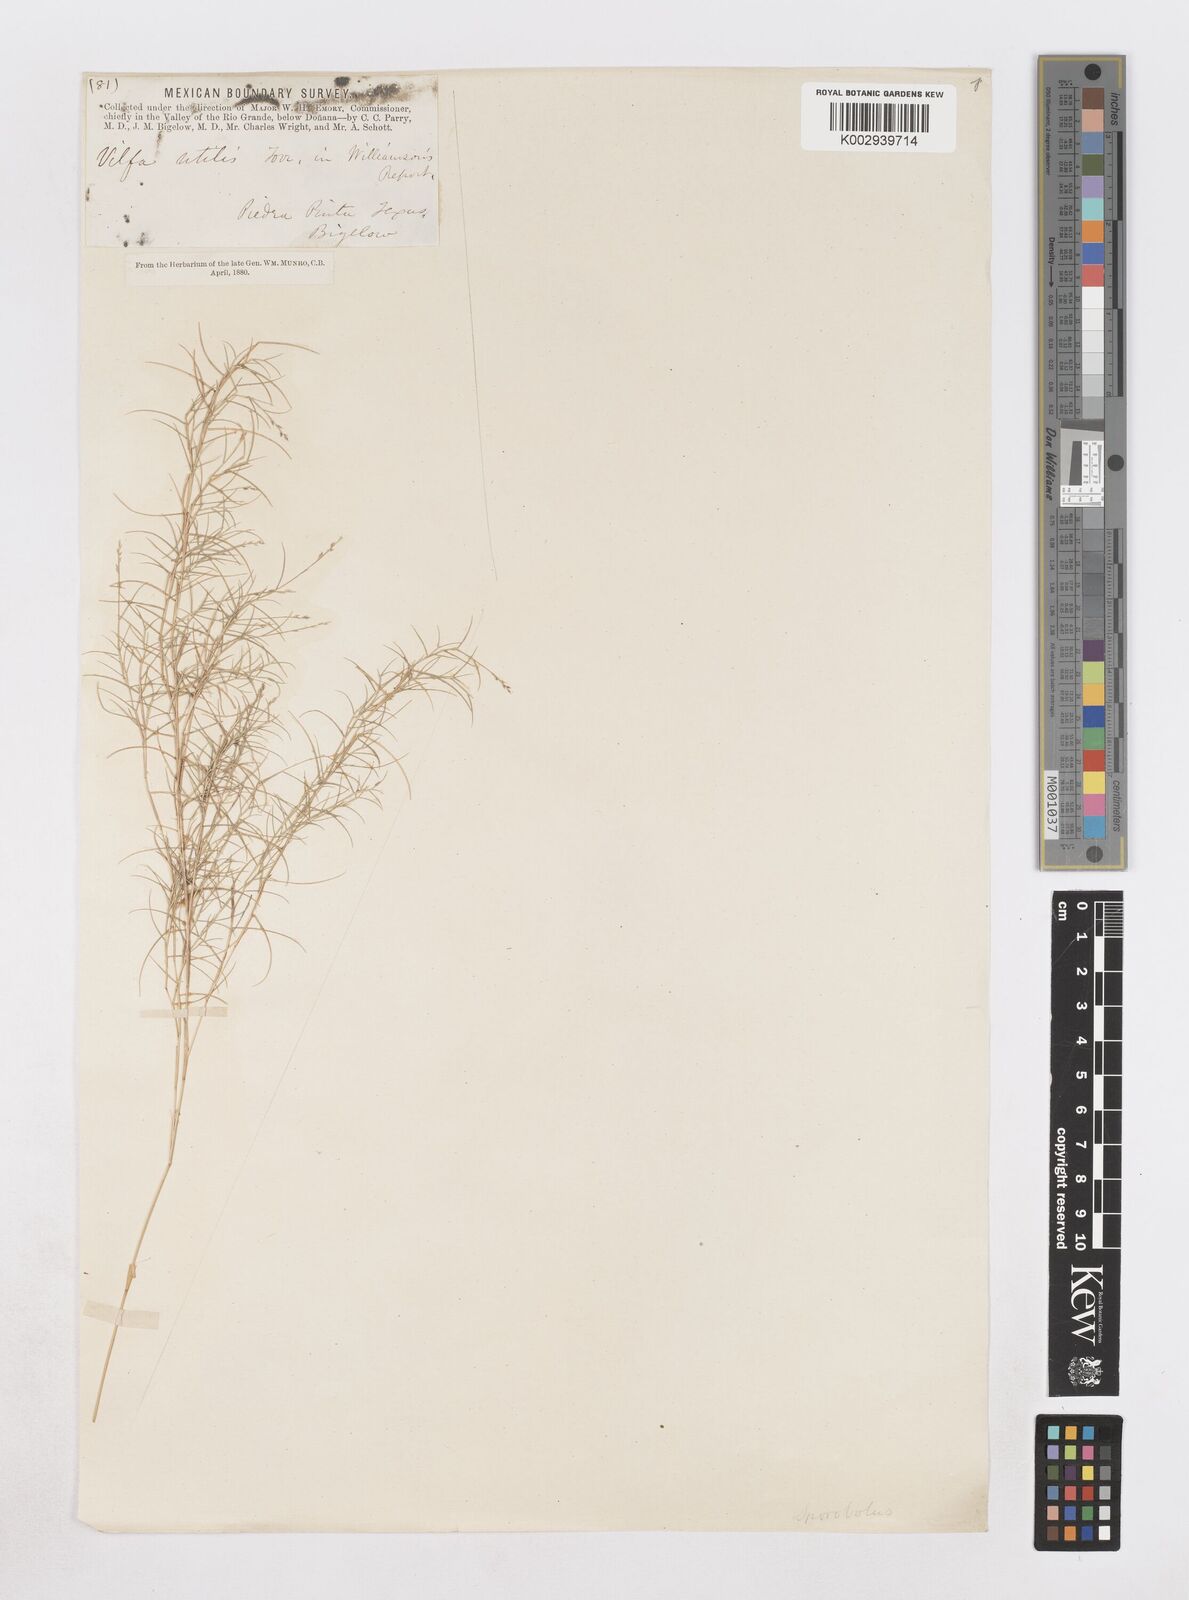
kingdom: Plantae
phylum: Tracheophyta
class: Liliopsida
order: Poales
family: Poaceae
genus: Muhlenbergia
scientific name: Muhlenbergia utilis
